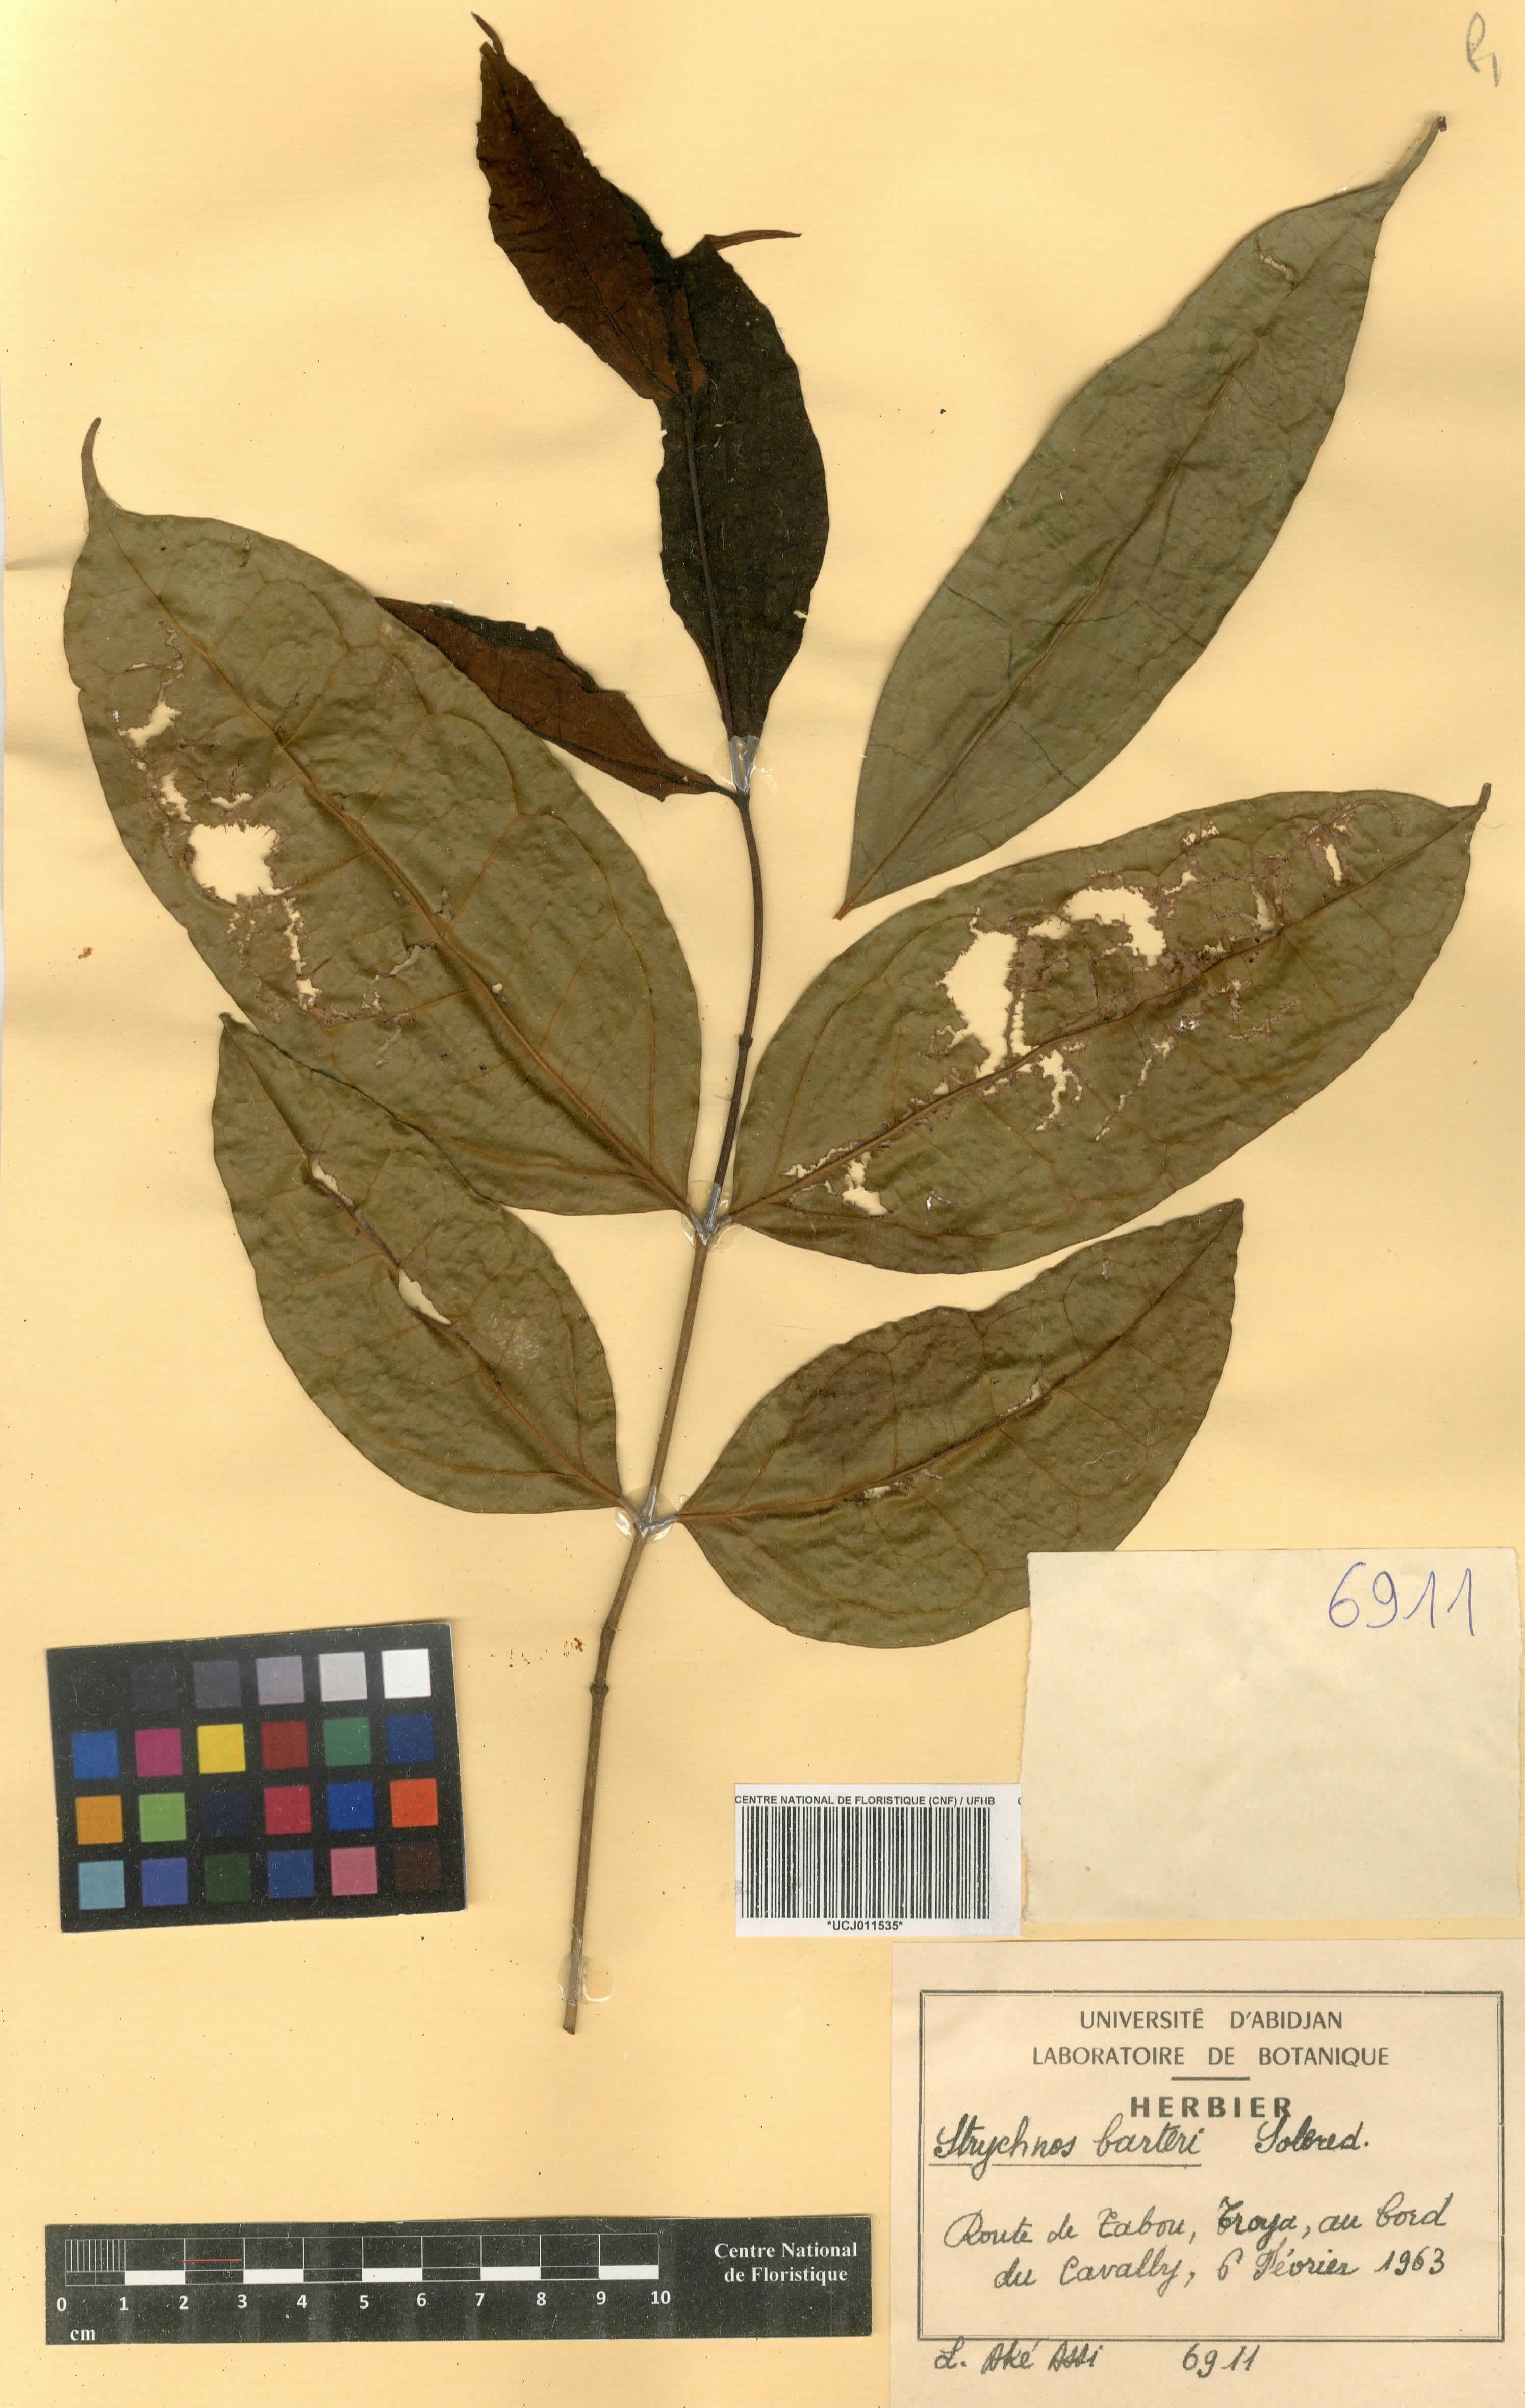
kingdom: Plantae
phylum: Tracheophyta
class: Magnoliopsida
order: Gentianales
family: Loganiaceae
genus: Strychnos
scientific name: Strychnos barteri
